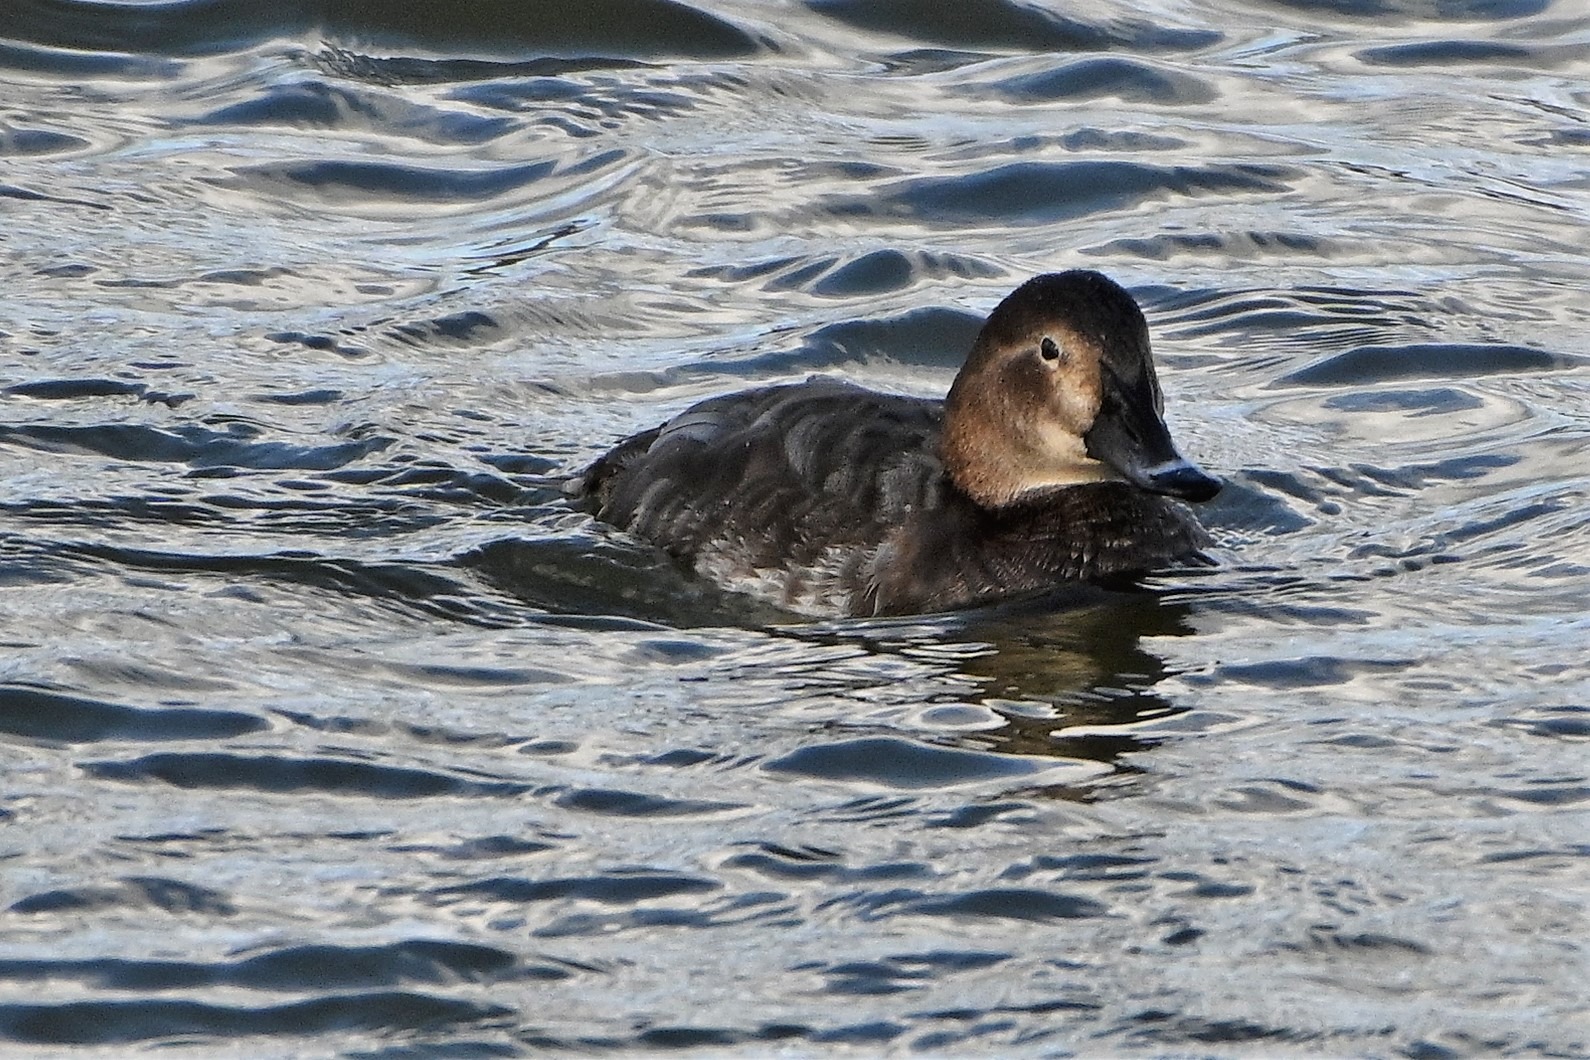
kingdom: Animalia
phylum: Chordata
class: Aves
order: Anseriformes
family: Anatidae
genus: Aythya
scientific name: Aythya ferina
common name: Taffeland
